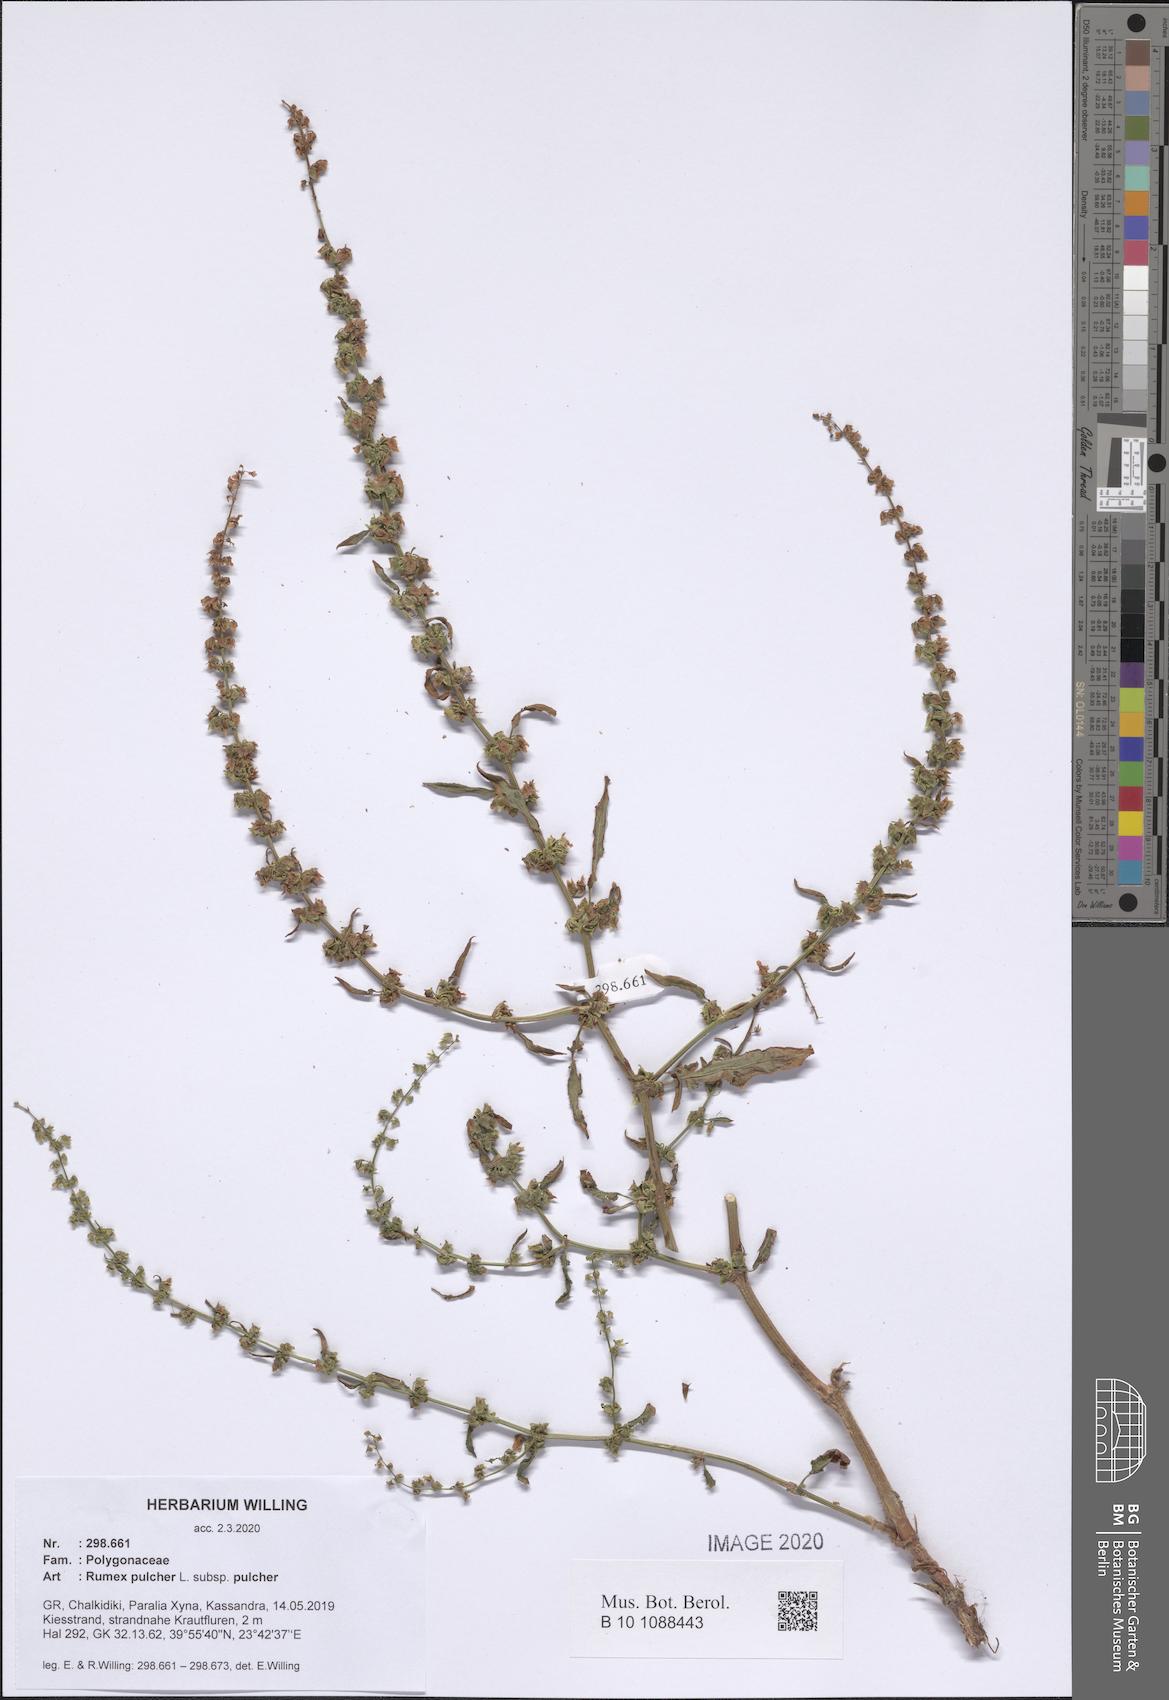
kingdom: Plantae
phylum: Tracheophyta
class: Magnoliopsida
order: Caryophyllales
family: Polygonaceae
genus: Rumex
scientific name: Rumex pulcher
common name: Fiddle dock
